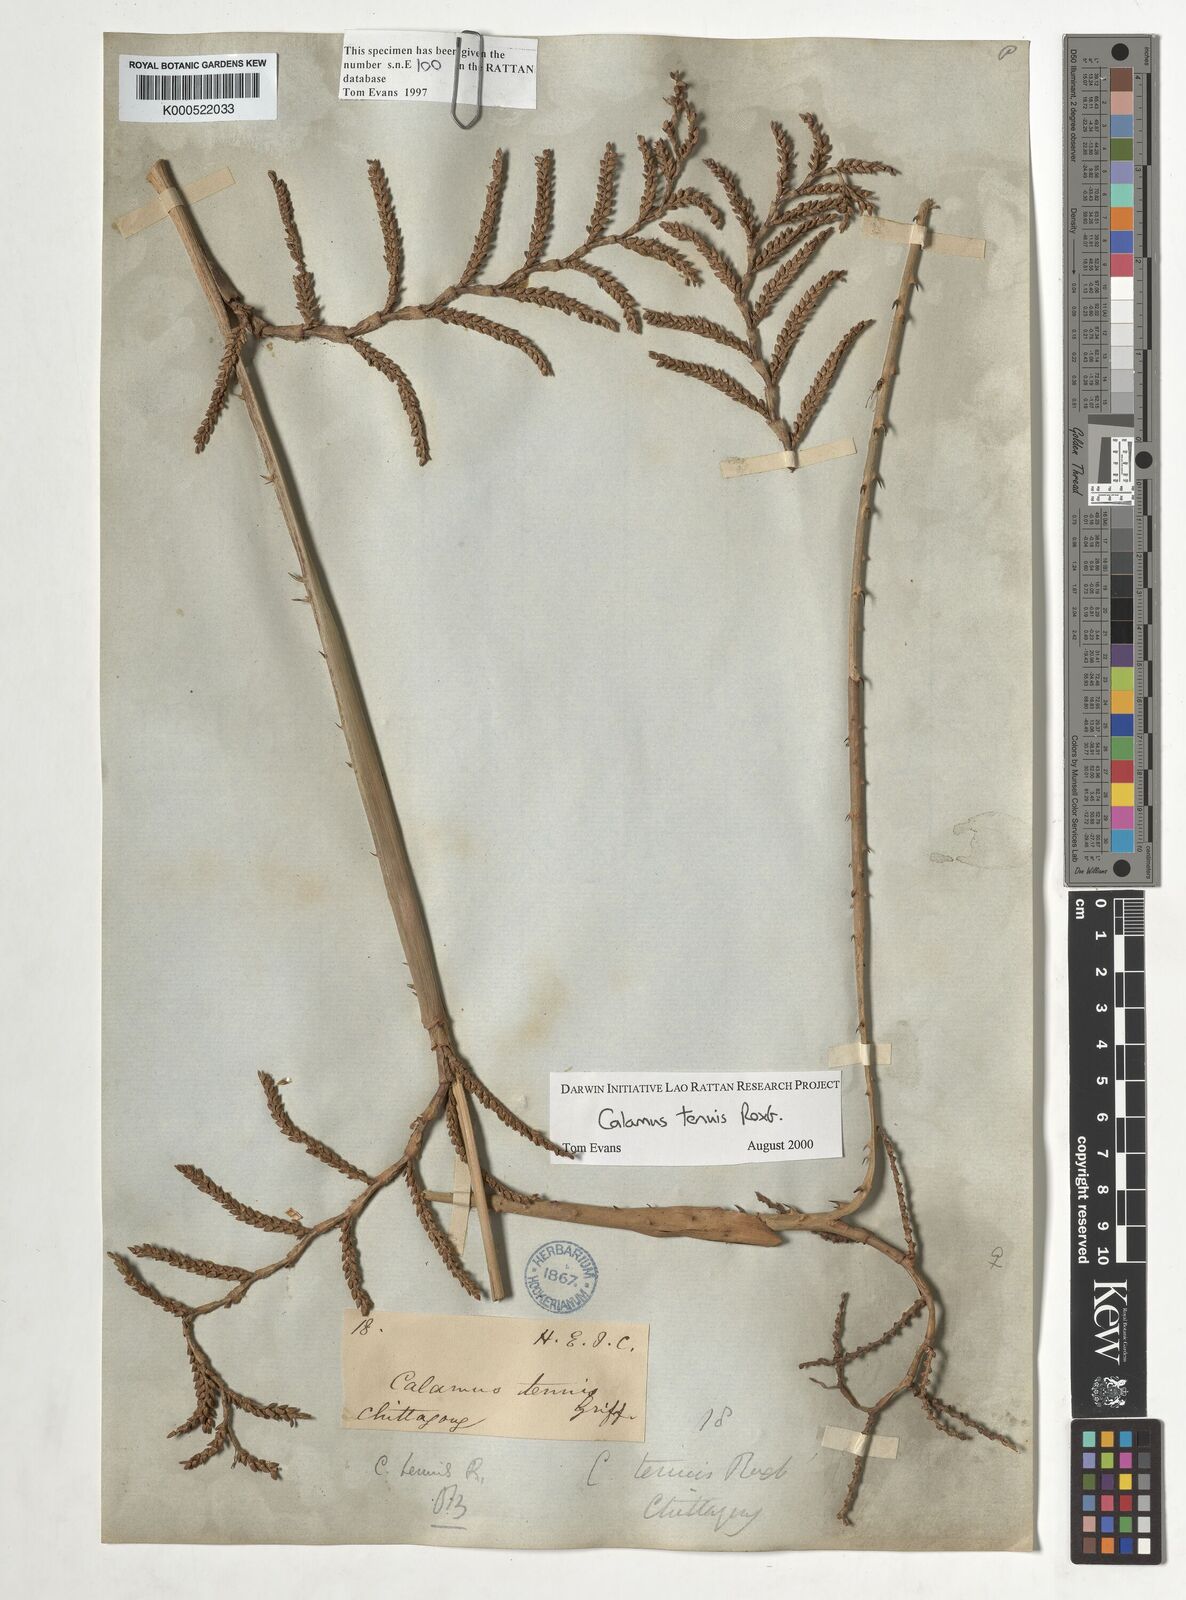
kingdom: Plantae
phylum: Tracheophyta
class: Liliopsida
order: Arecales
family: Arecaceae
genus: Calamus
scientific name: Calamus tenuis
